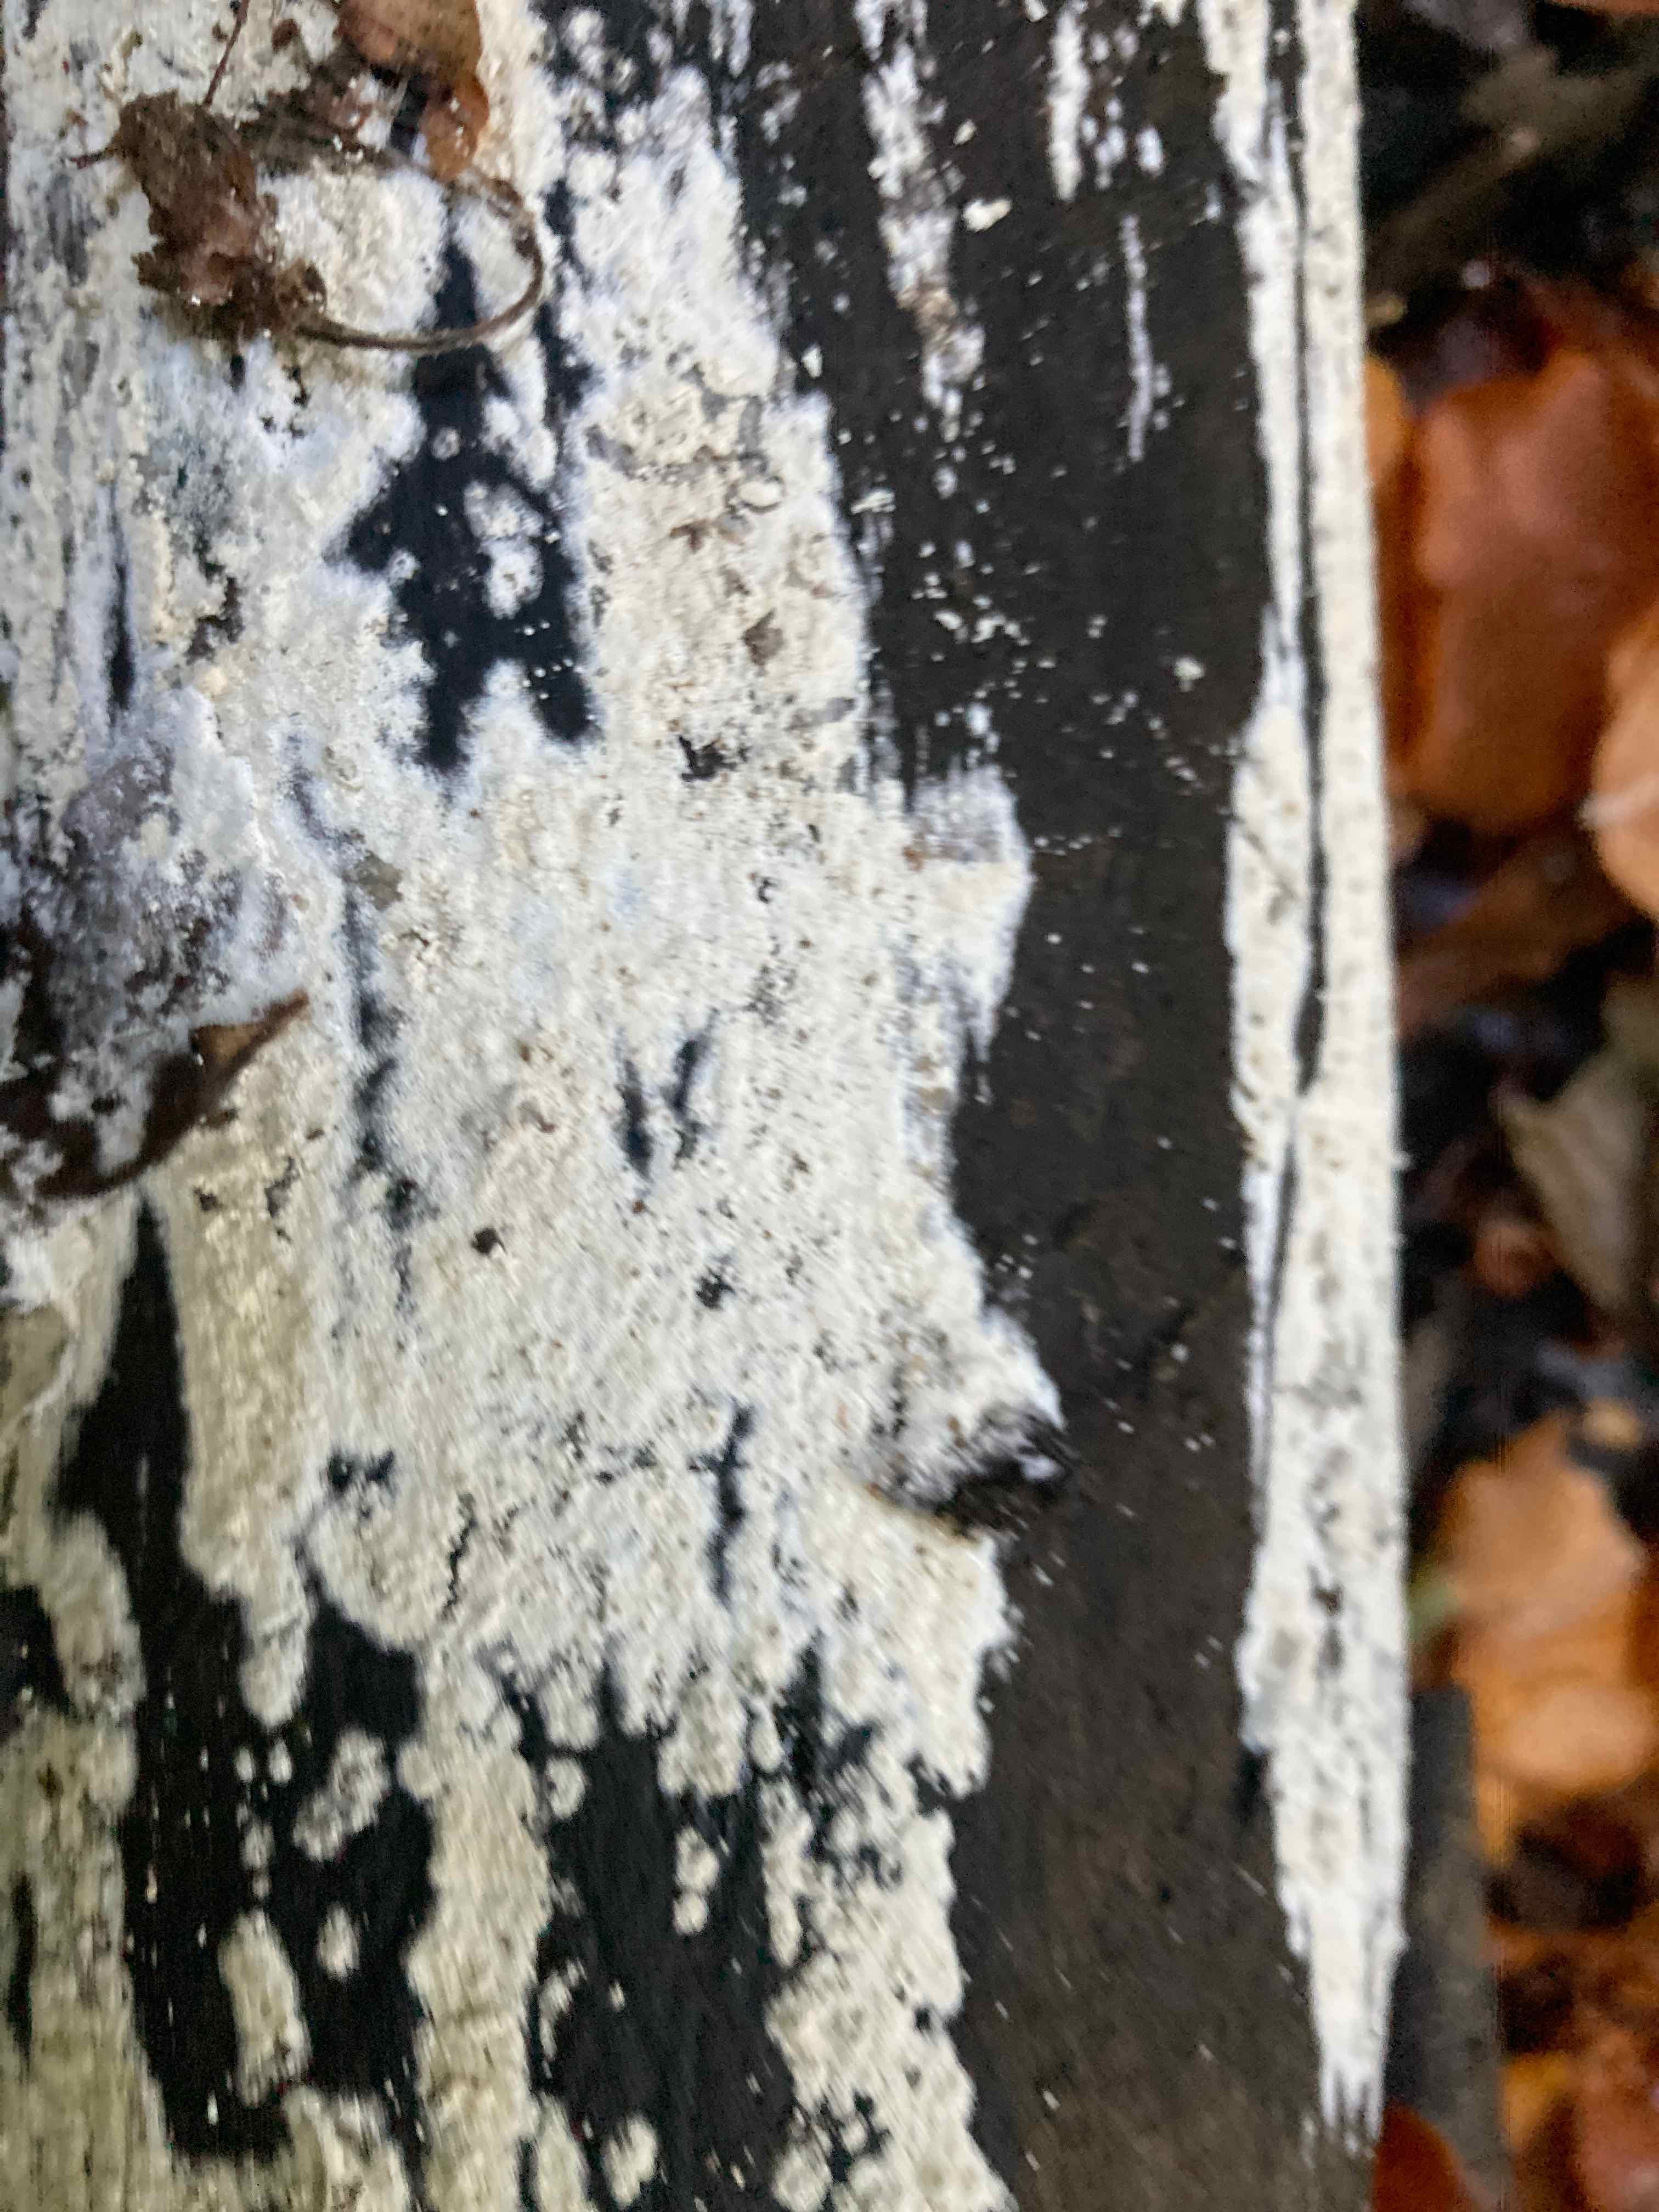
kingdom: Fungi
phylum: Basidiomycota
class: Agaricomycetes
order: Polyporales
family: Meruliaceae
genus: Bulbillomyces
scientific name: Bulbillomyces farinosus
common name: æg-kalkskind
